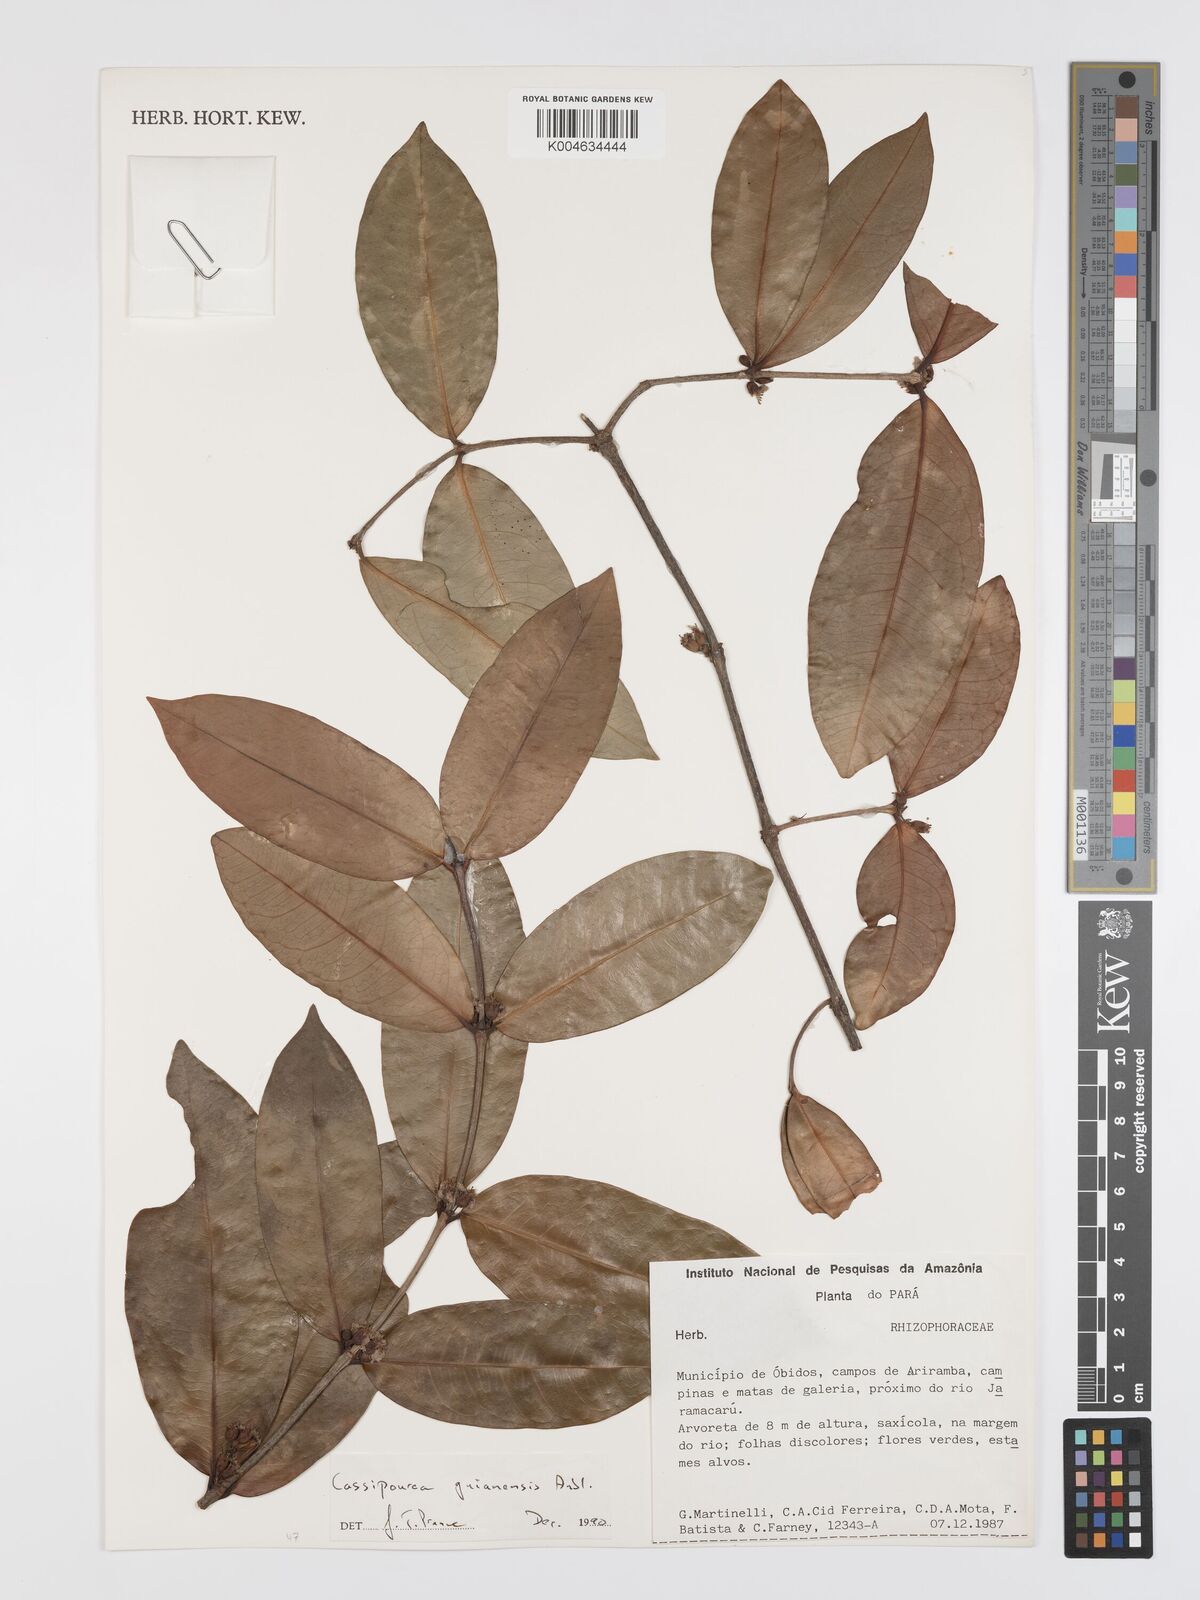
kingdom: Plantae
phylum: Tracheophyta
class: Magnoliopsida
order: Malpighiales
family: Rhizophoraceae
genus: Cassipourea
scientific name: Cassipourea guianensis
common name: Bastard waterwood
